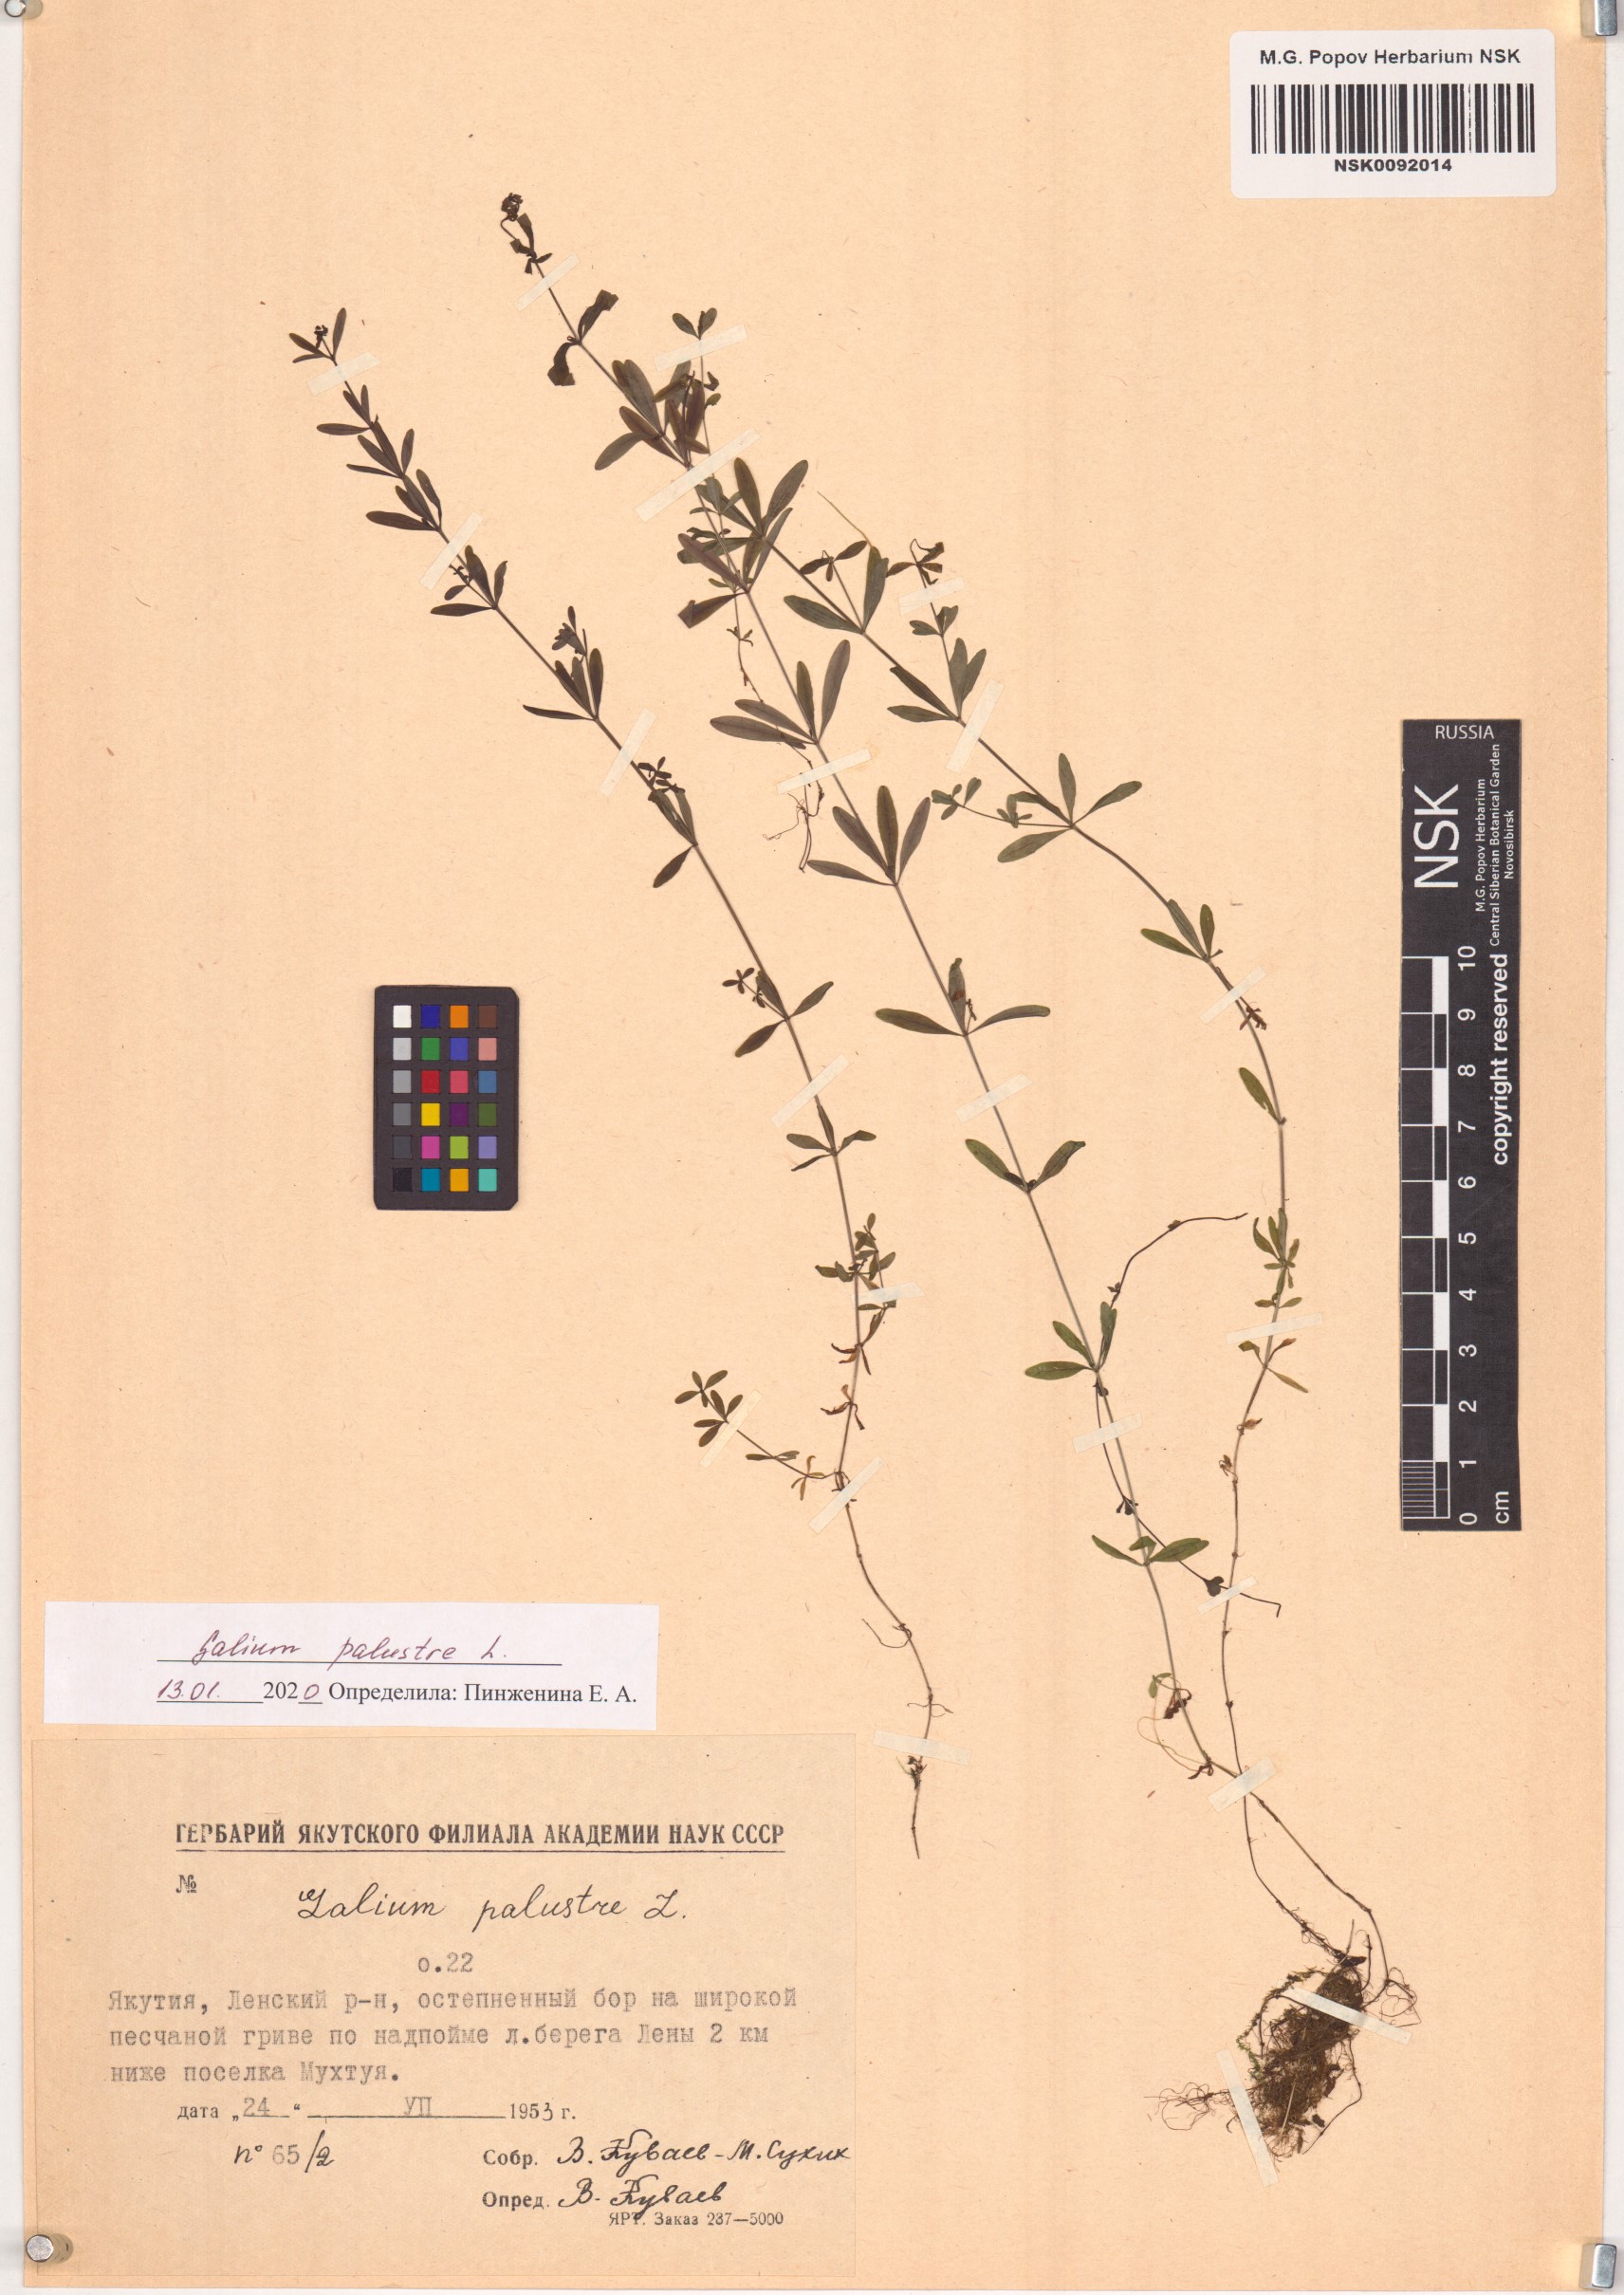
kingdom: Plantae
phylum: Tracheophyta
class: Magnoliopsida
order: Gentianales
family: Rubiaceae
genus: Galium
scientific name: Galium palustre
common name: Common marsh-bedstraw
